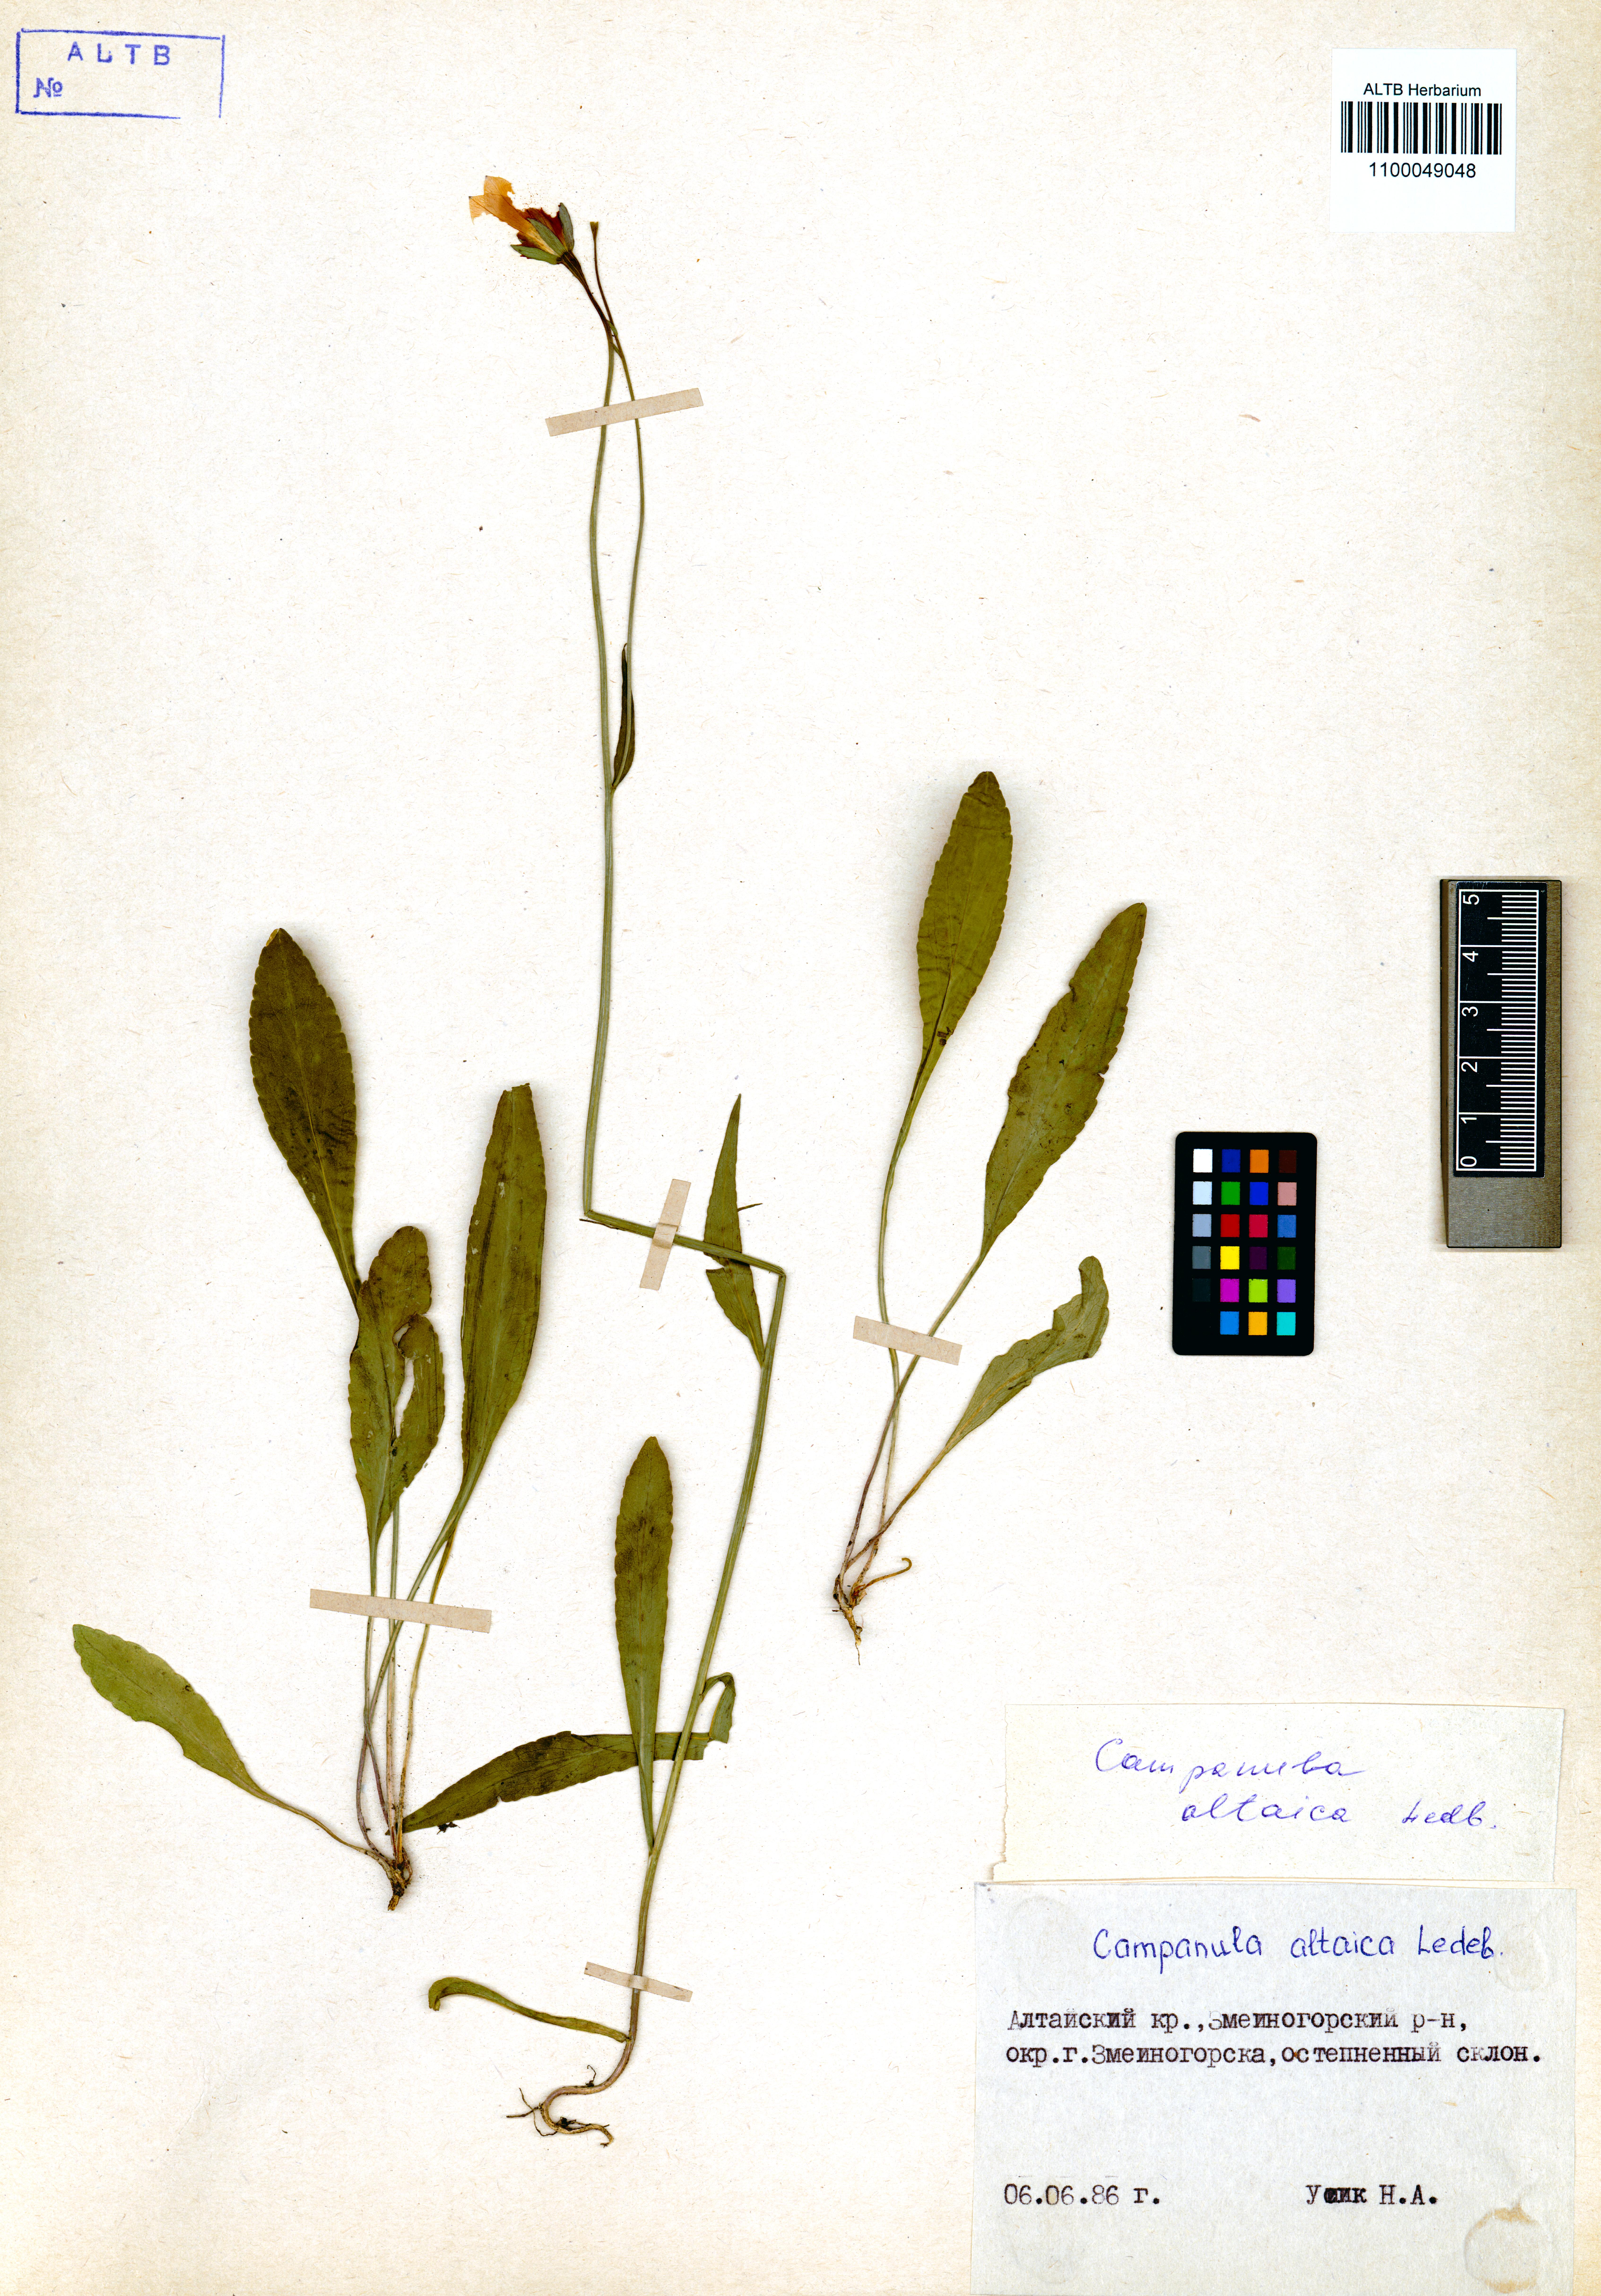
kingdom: Plantae
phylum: Tracheophyta
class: Magnoliopsida
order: Asterales
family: Campanulaceae
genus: Campanula
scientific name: Campanula stevenii
